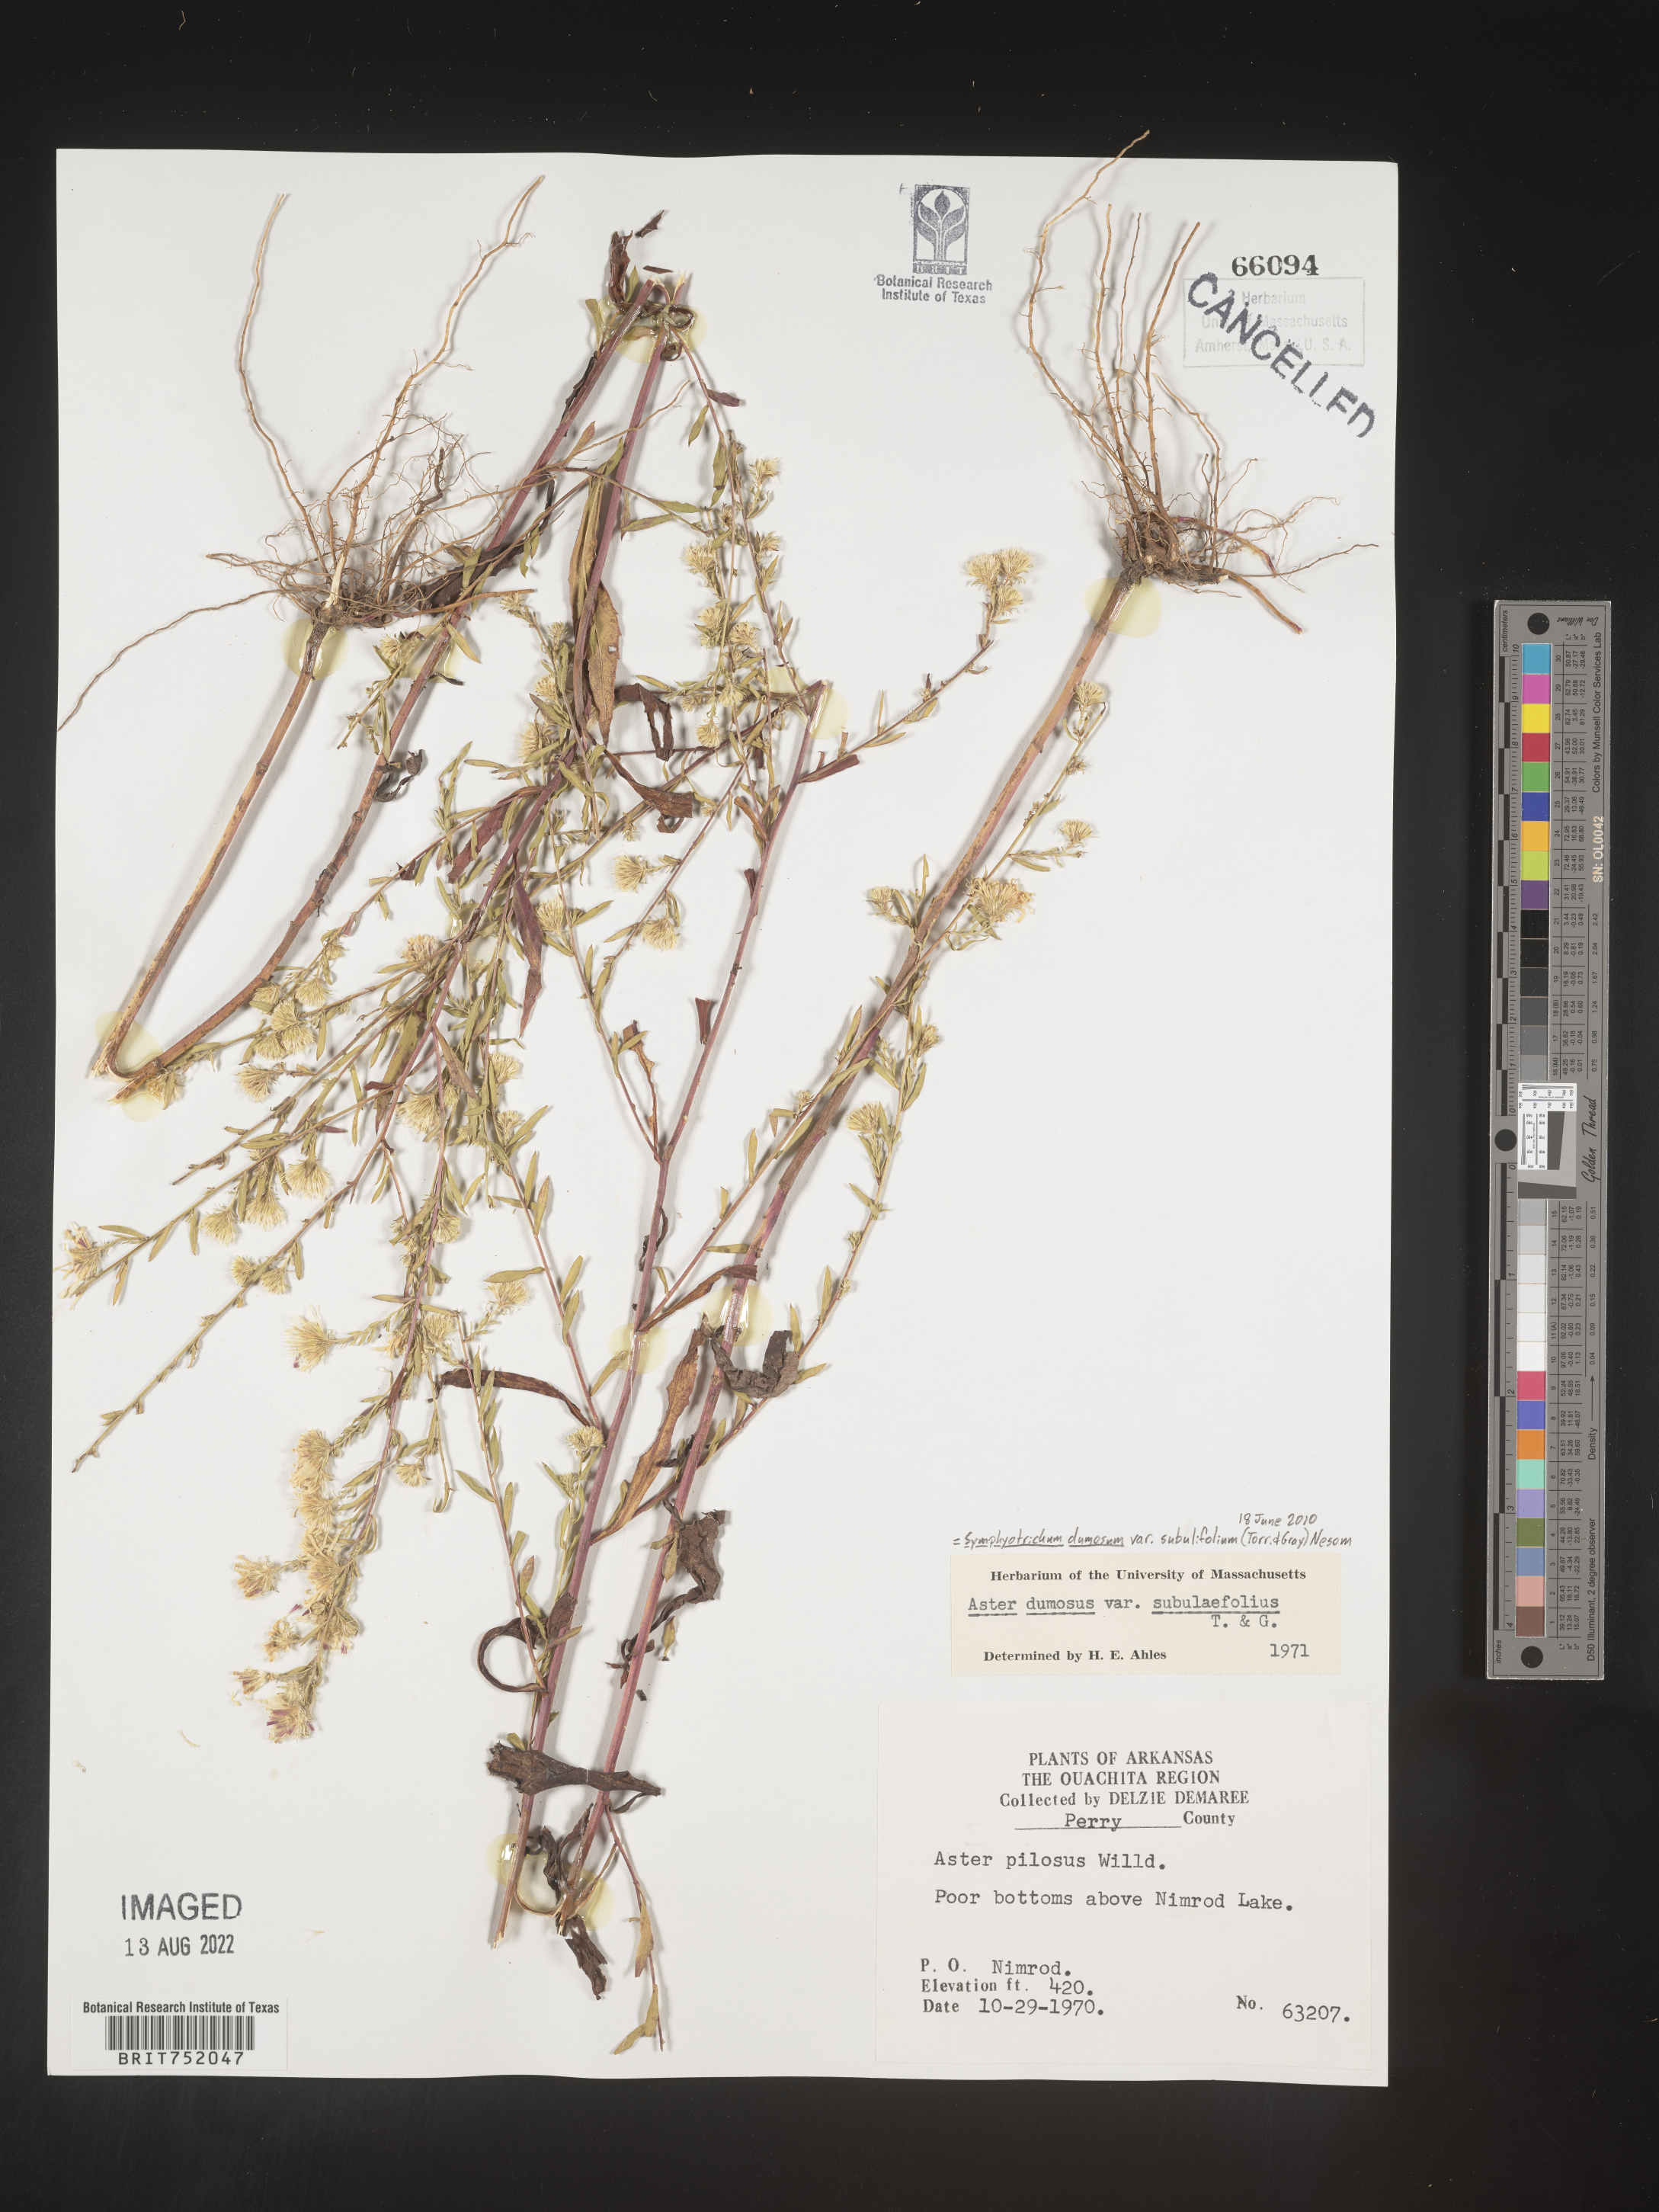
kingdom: Plantae
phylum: Tracheophyta
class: Magnoliopsida
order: Asterales
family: Asteraceae
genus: Symphyotrichum
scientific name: Symphyotrichum dumosum
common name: Bushy aster
